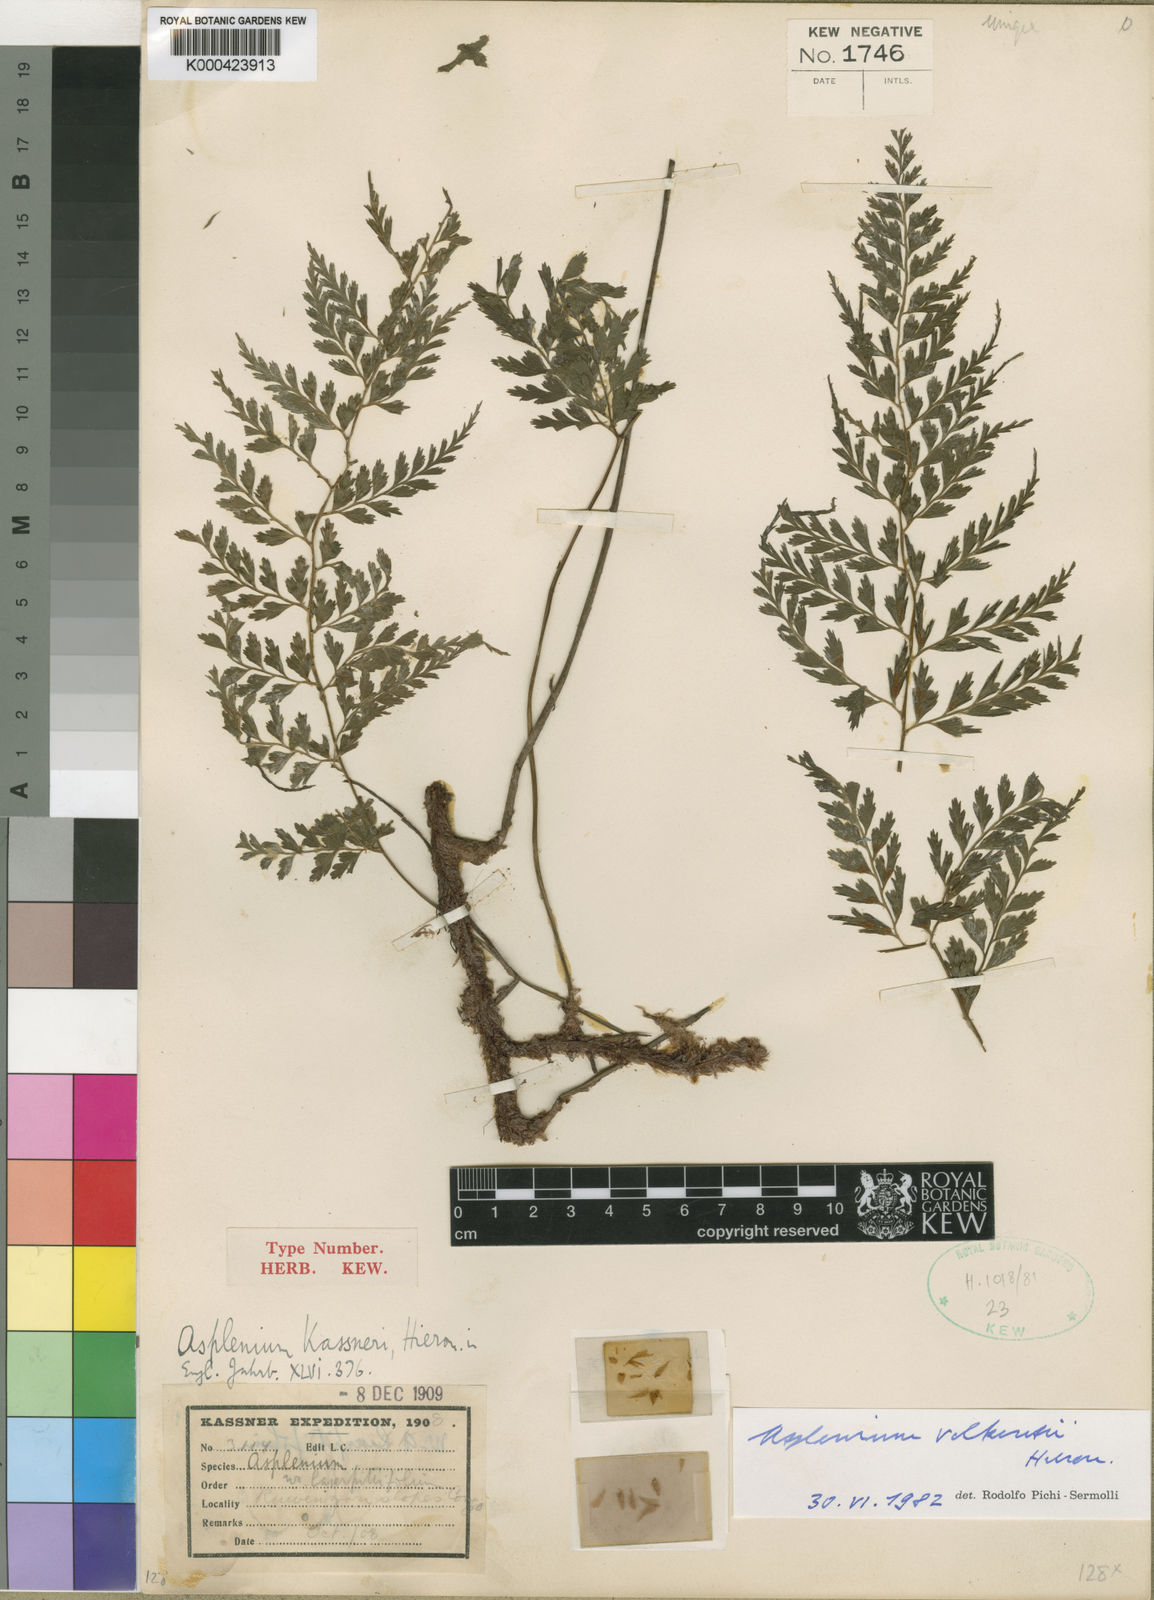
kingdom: Plantae
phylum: Tracheophyta
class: Polypodiopsida
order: Polypodiales
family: Aspleniaceae
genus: Asplenium
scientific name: Asplenium uhligii
